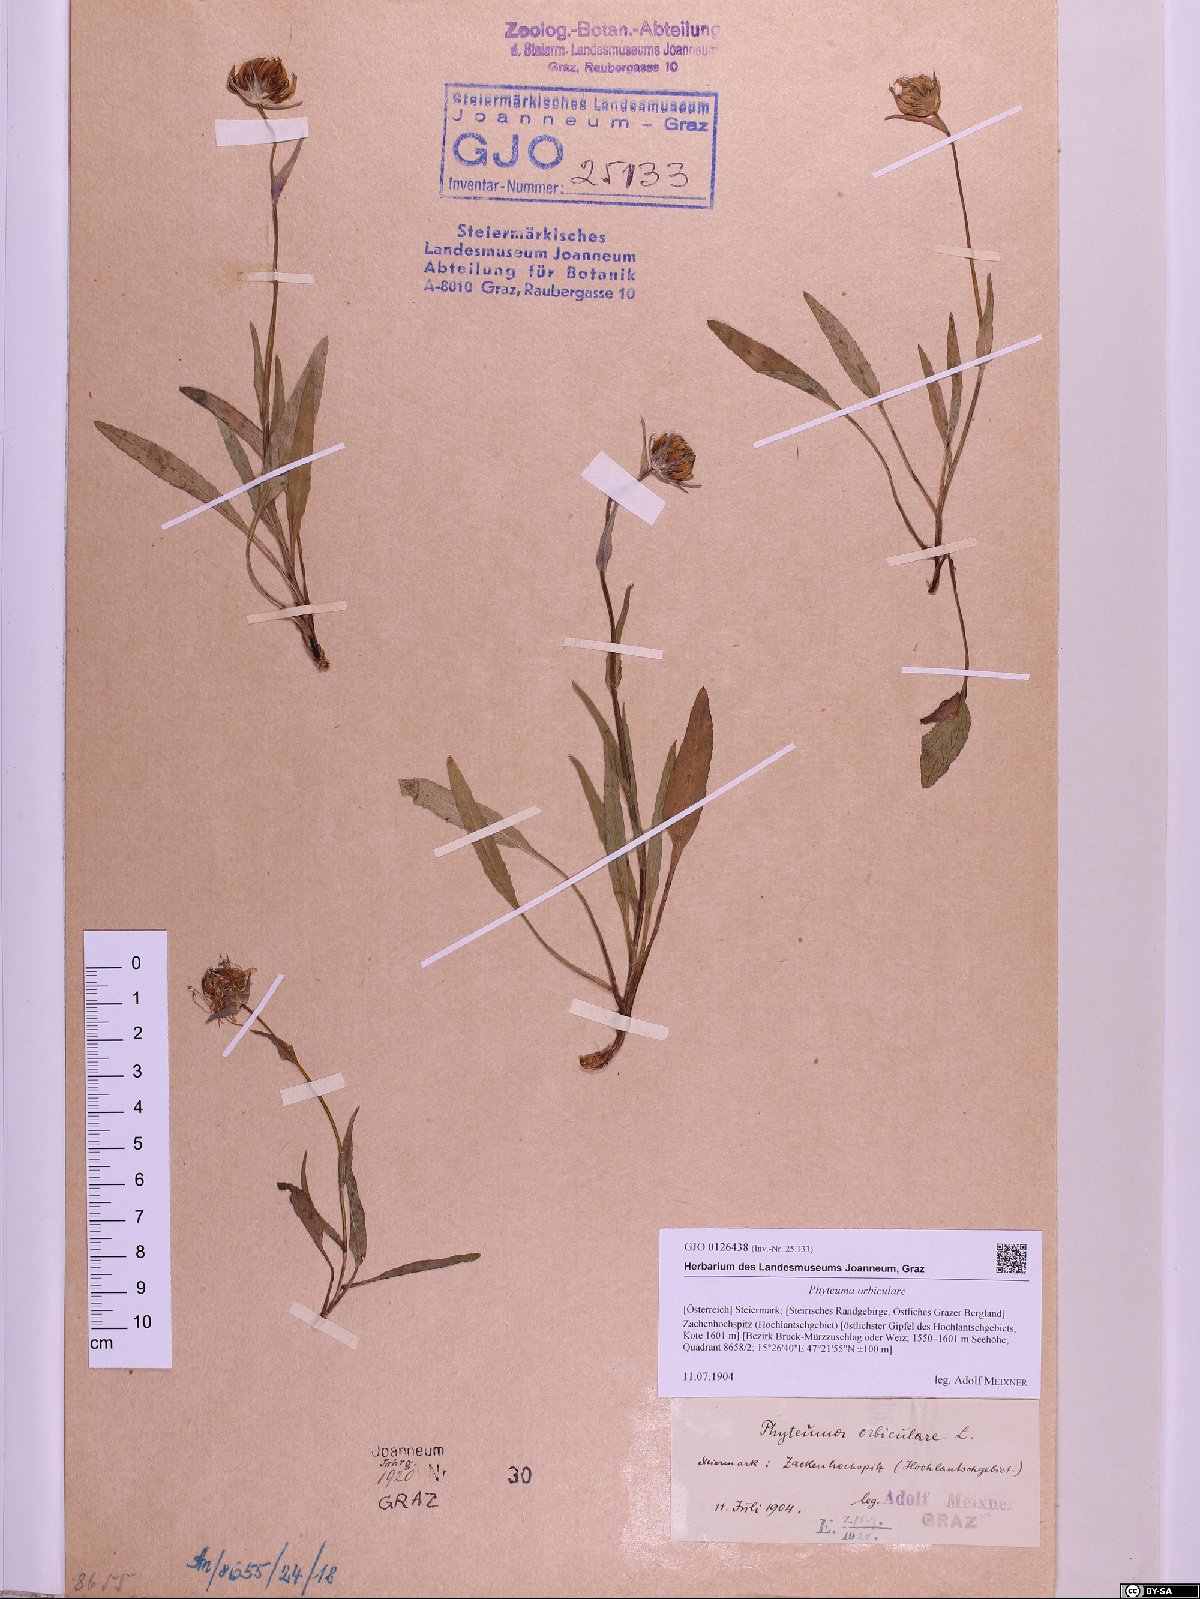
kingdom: Plantae
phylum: Tracheophyta
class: Magnoliopsida
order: Asterales
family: Campanulaceae
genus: Phyteuma
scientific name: Phyteuma orbiculare
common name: Round-headed rampion
